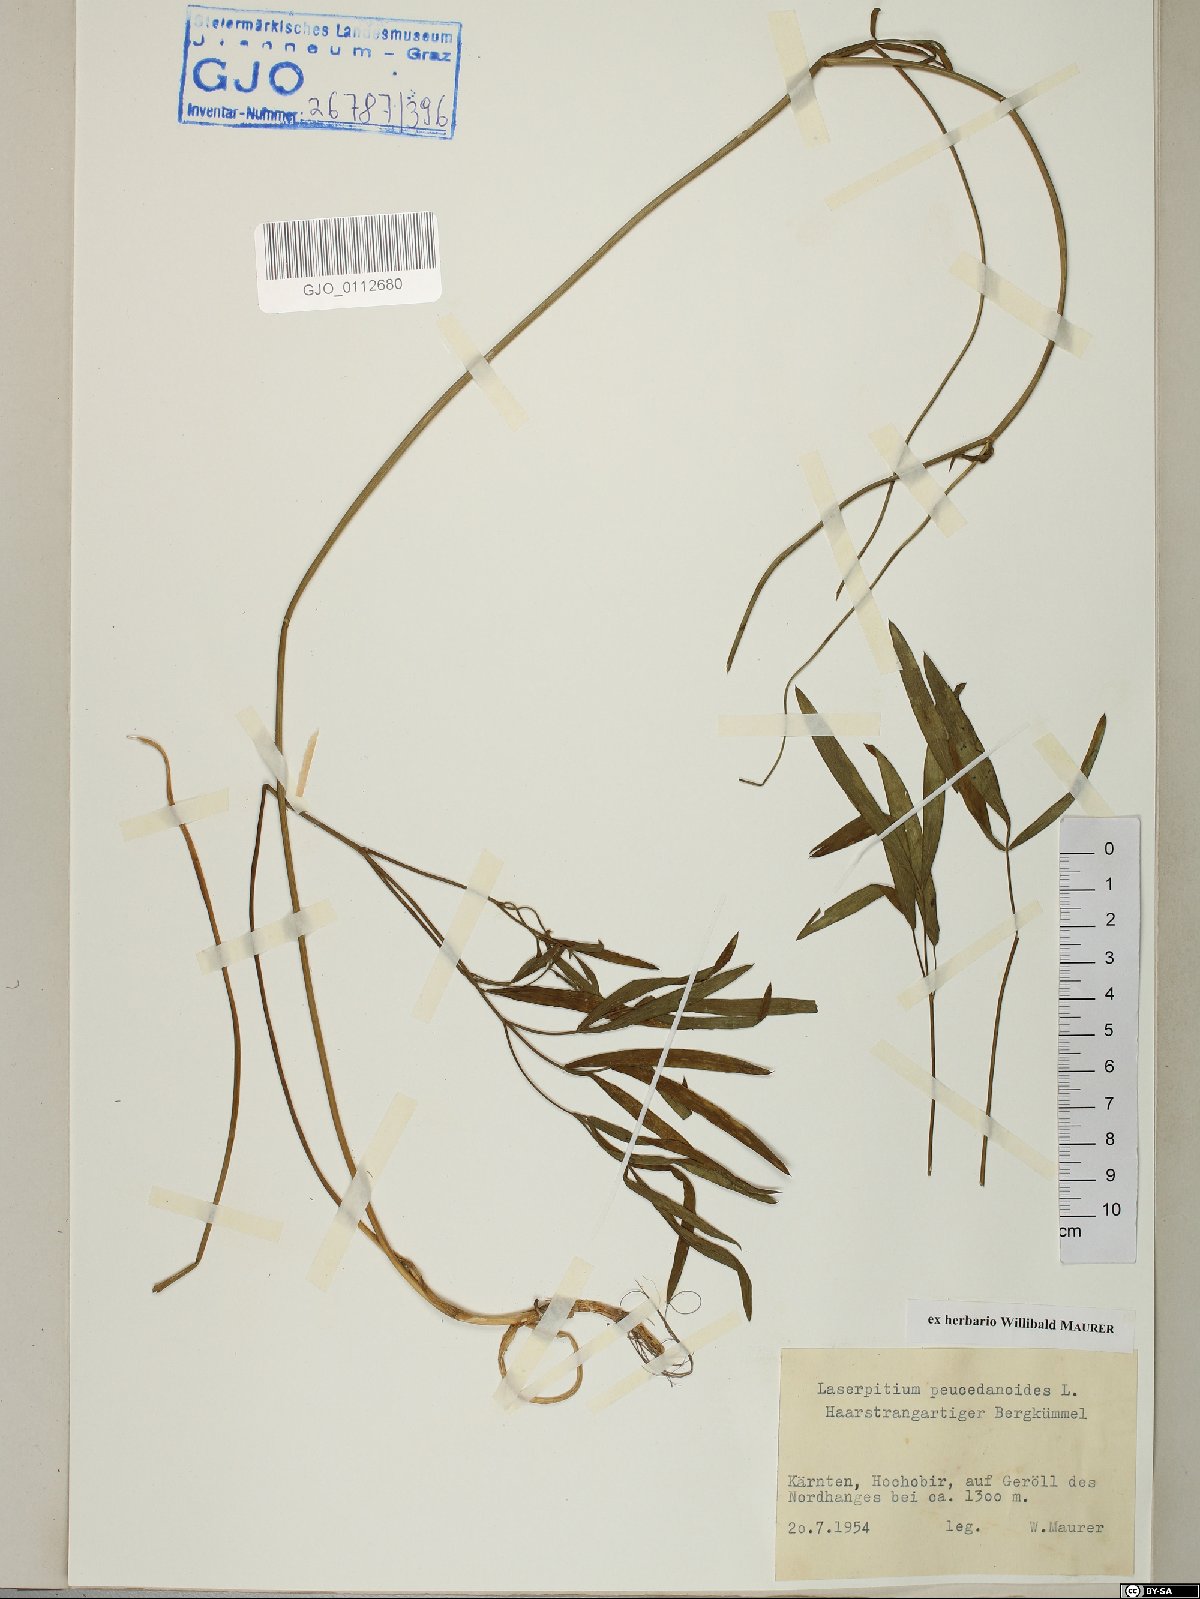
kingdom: Plantae
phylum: Tracheophyta
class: Magnoliopsida
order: Apiales
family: Apiaceae
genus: Laserpitium
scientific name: Laserpitium peucedanoides
